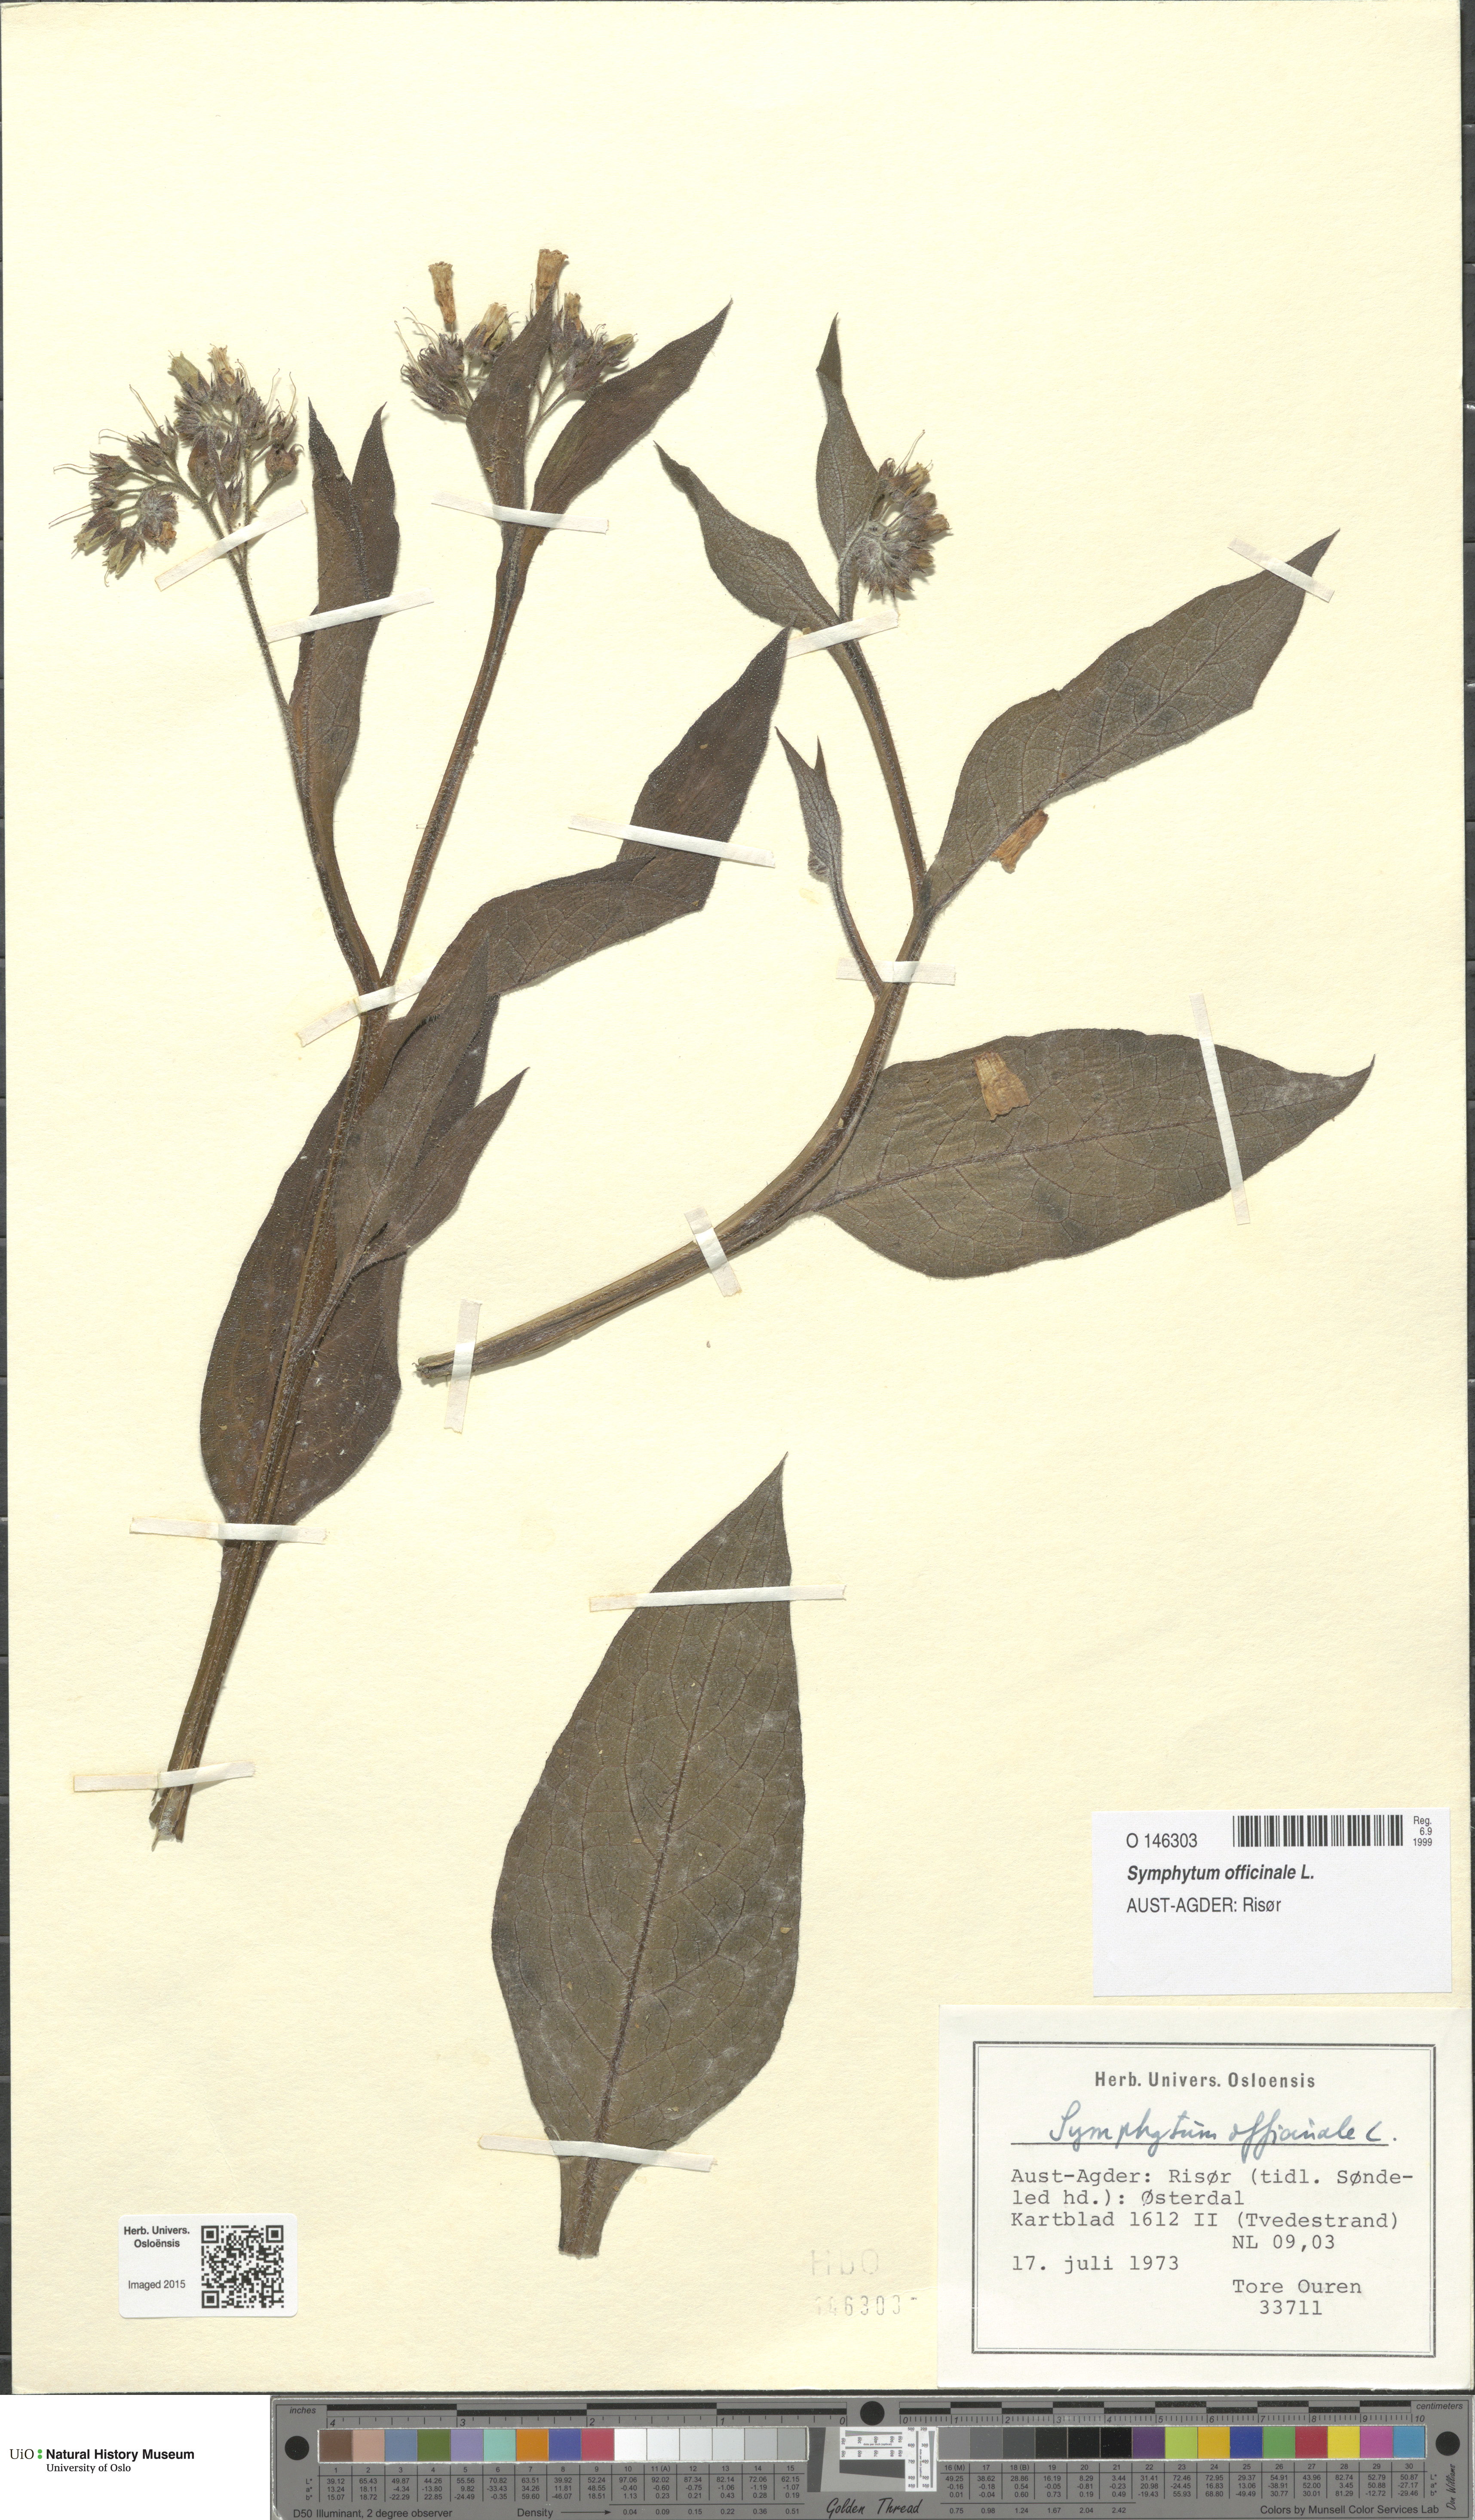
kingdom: Plantae
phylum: Tracheophyta
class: Magnoliopsida
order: Boraginales
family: Boraginaceae
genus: Symphytum
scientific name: Symphytum officinale
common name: Common comfrey
